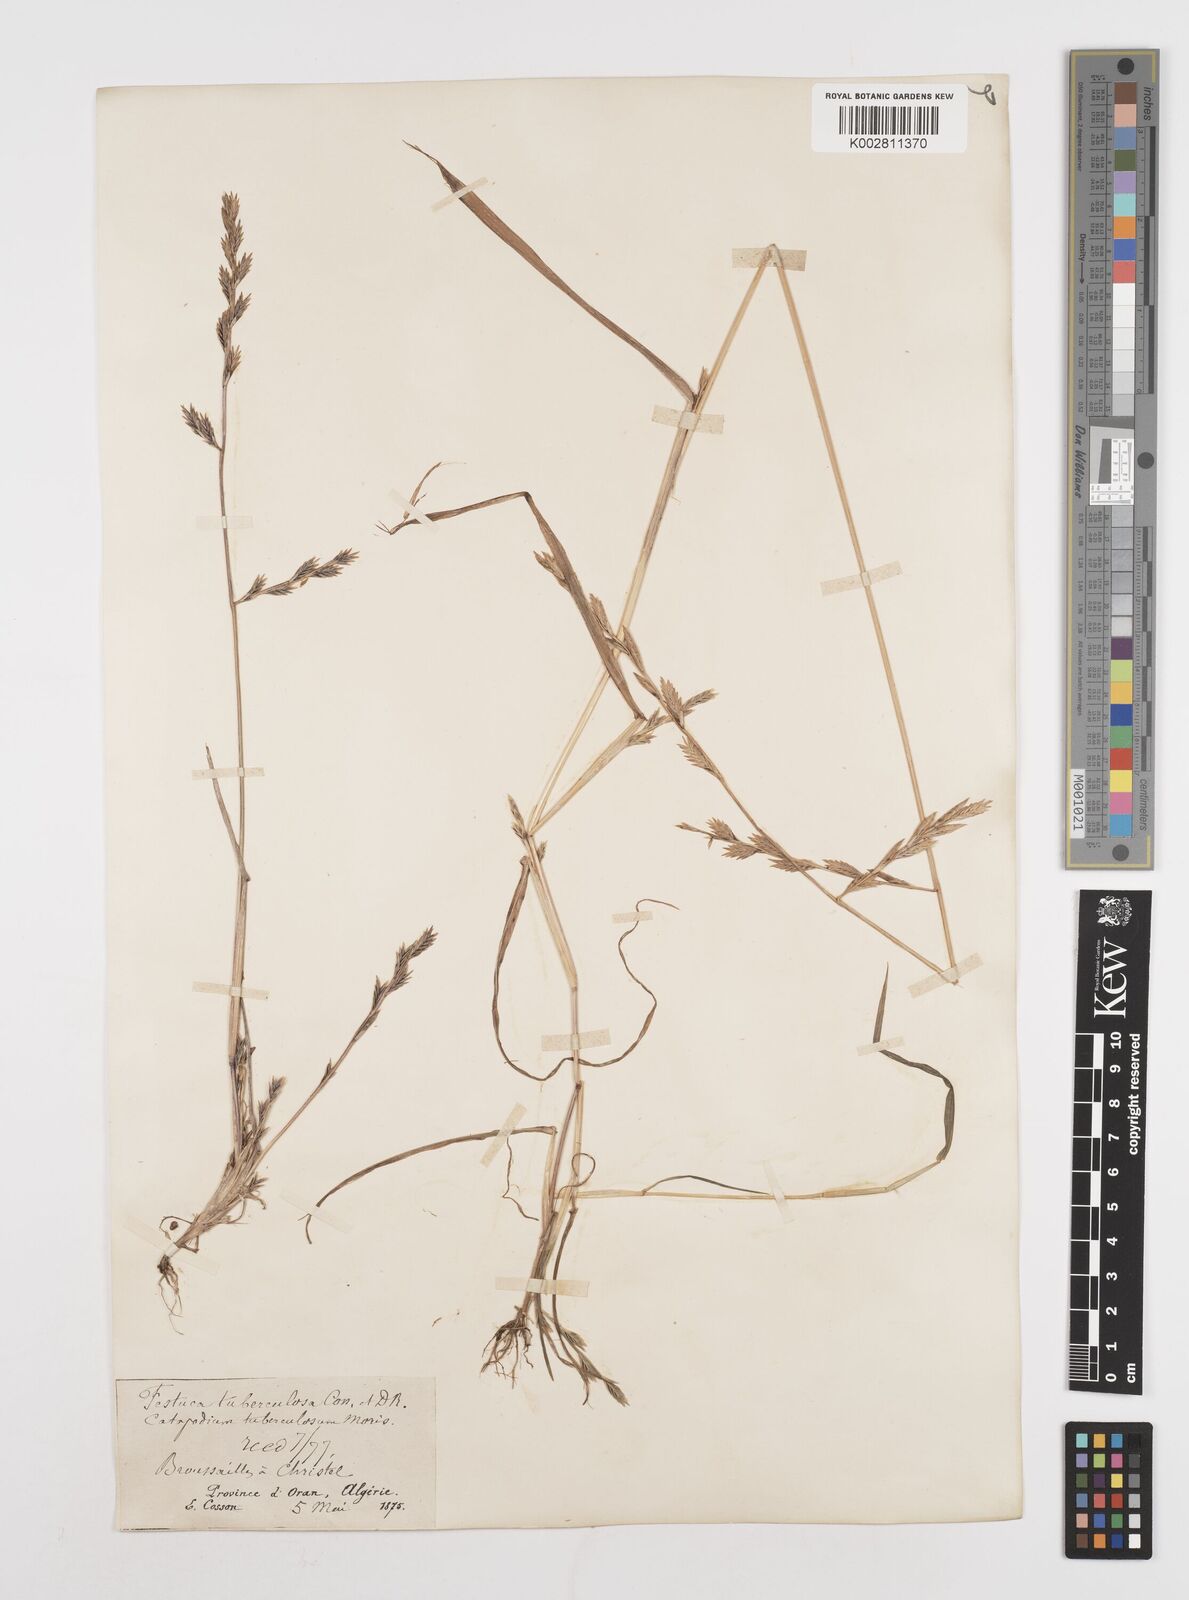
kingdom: Plantae
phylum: Tracheophyta
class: Liliopsida
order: Poales
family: Poaceae
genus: Castellia
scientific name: Castellia tuberculosa
